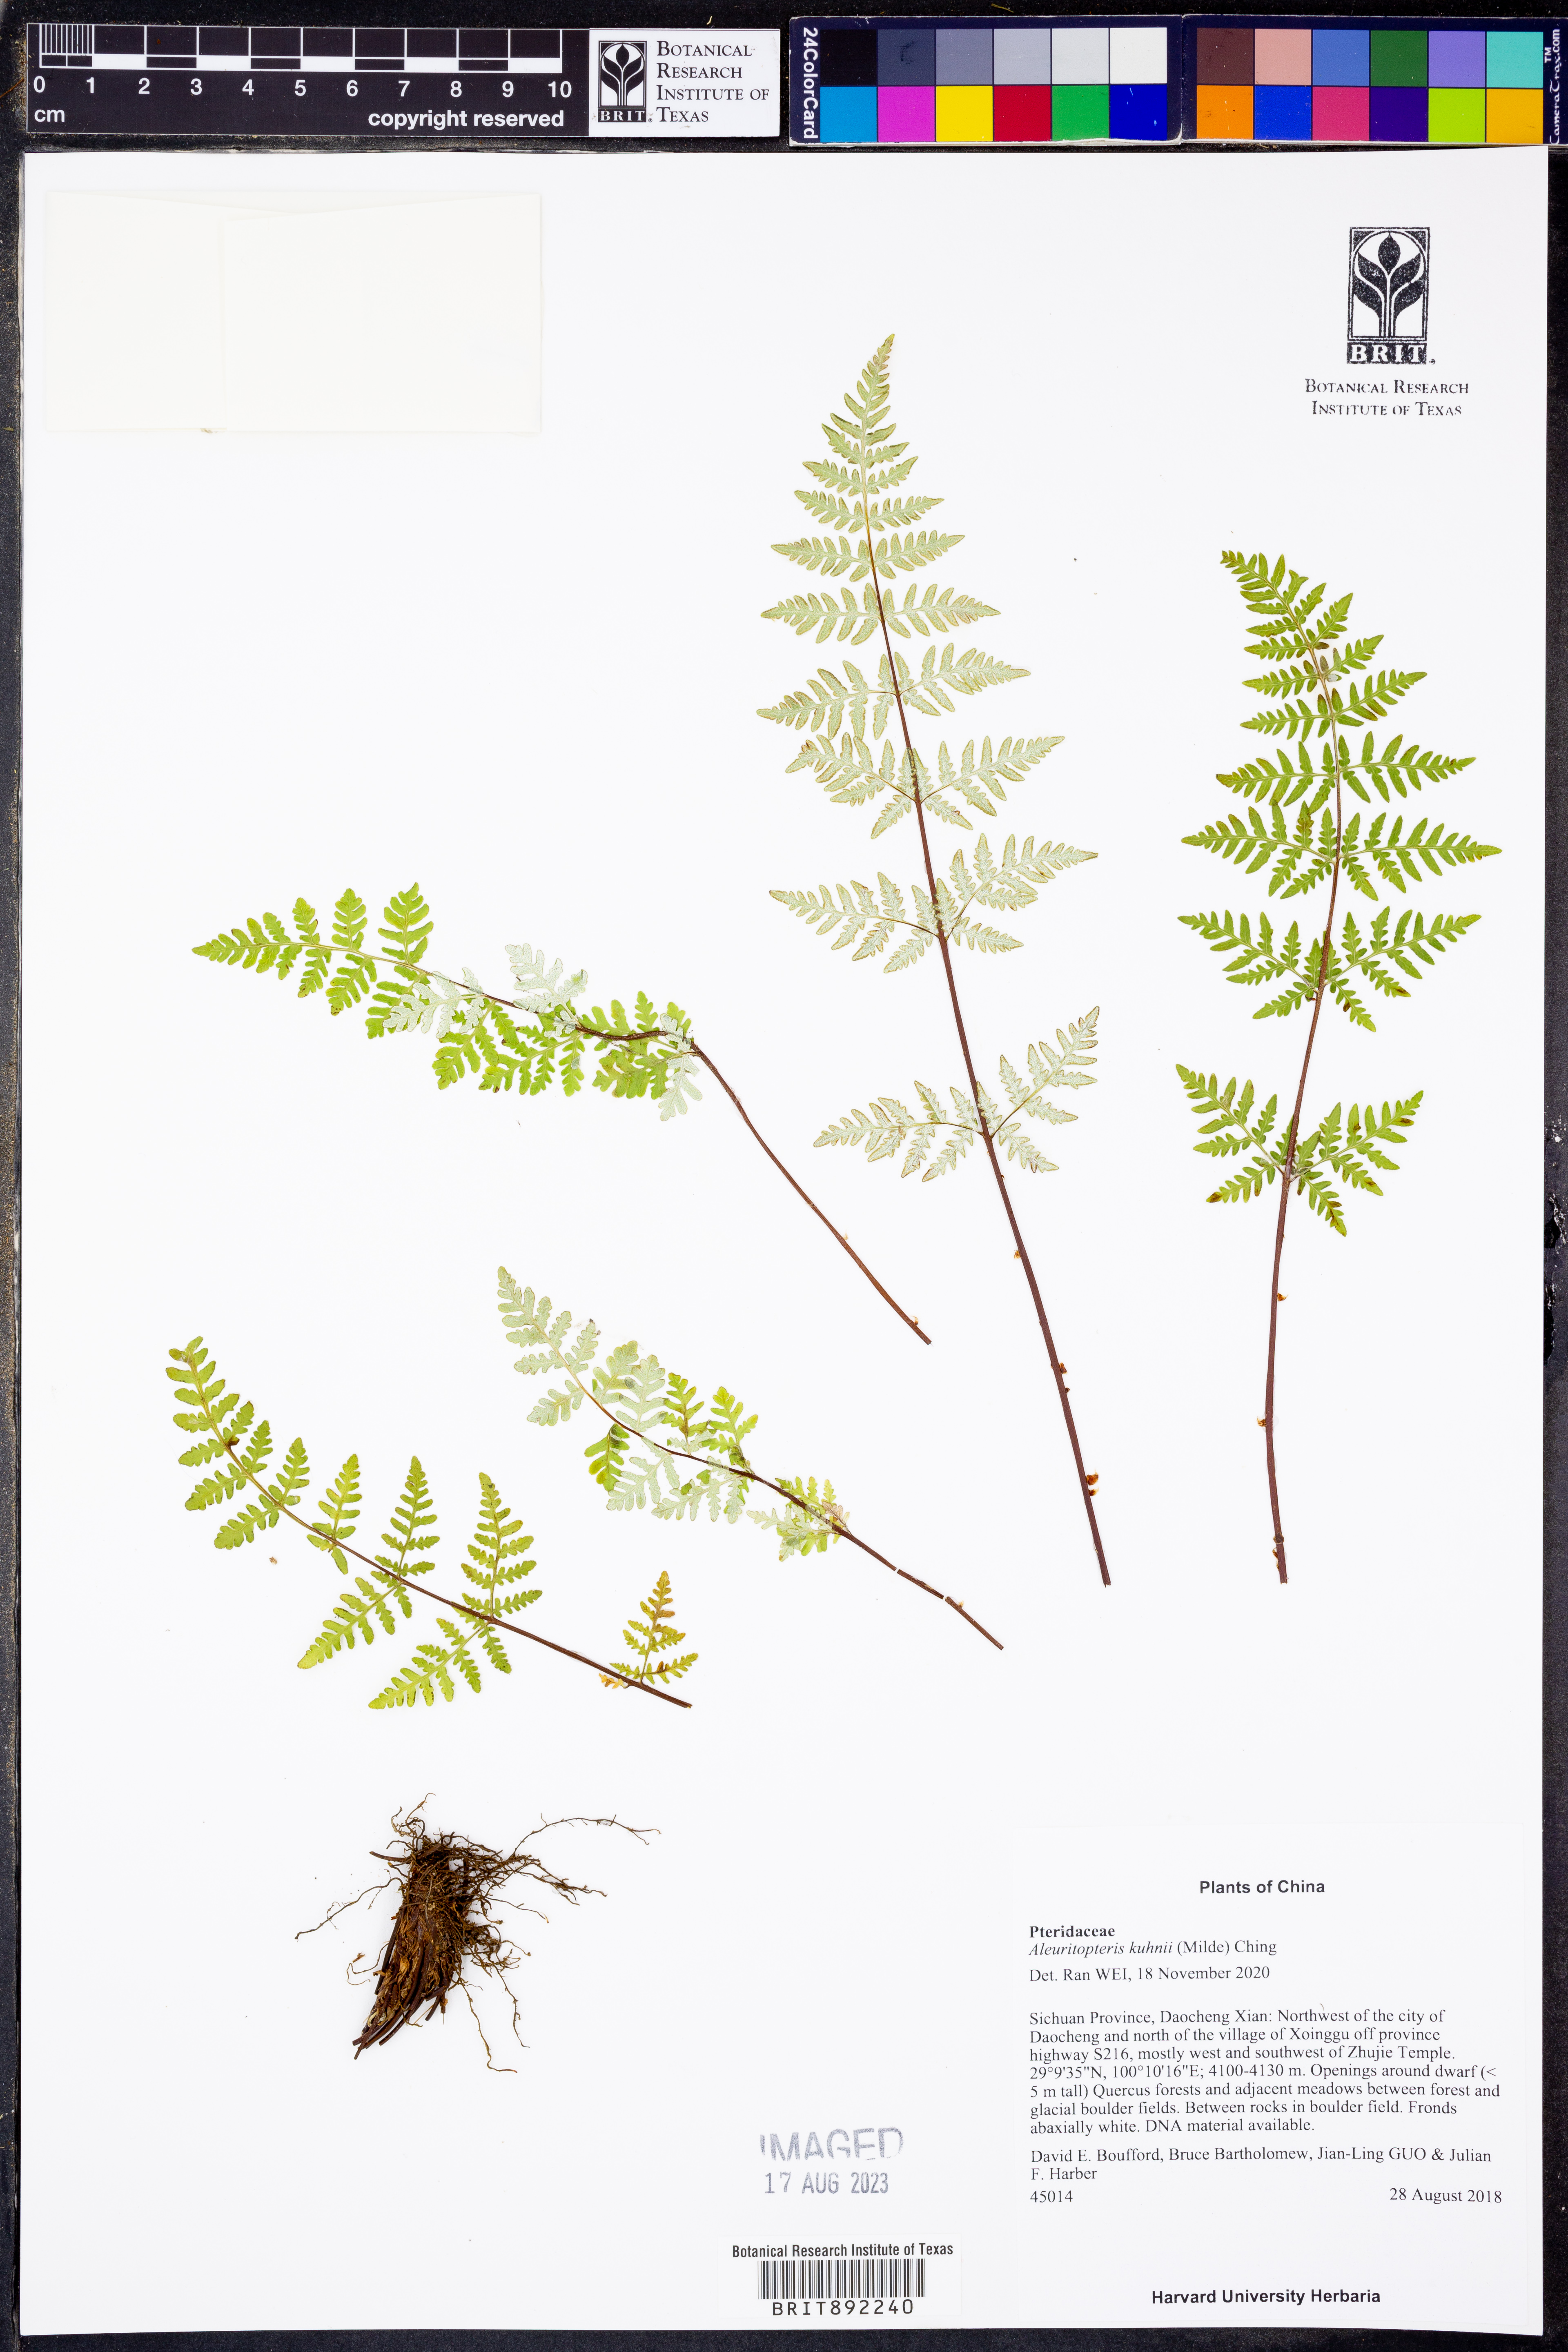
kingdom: Plantae
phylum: Tracheophyta
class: Polypodiopsida
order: Polypodiales
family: Pteridaceae
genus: Oeosporangium
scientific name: Oeosporangium kuhnii
